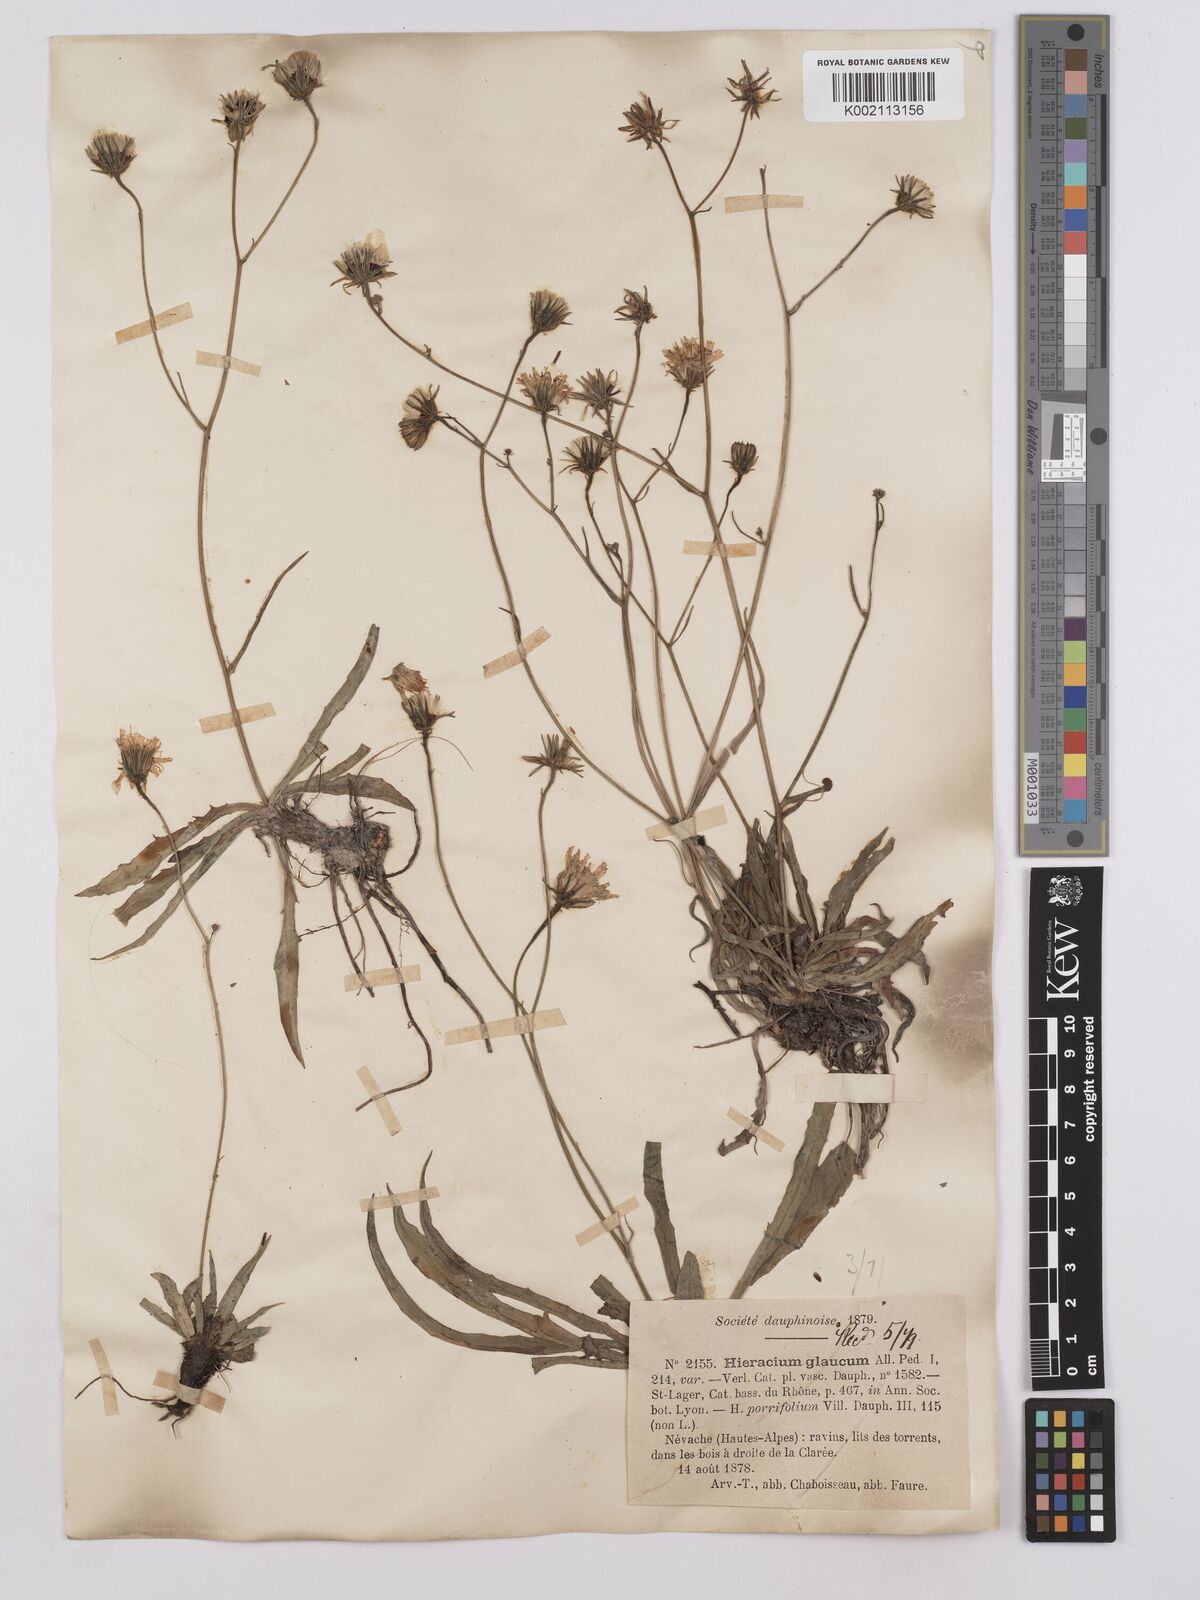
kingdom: Plantae
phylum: Tracheophyta
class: Magnoliopsida
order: Asterales
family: Asteraceae
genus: Hieracium
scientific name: Hieracium glaucum
